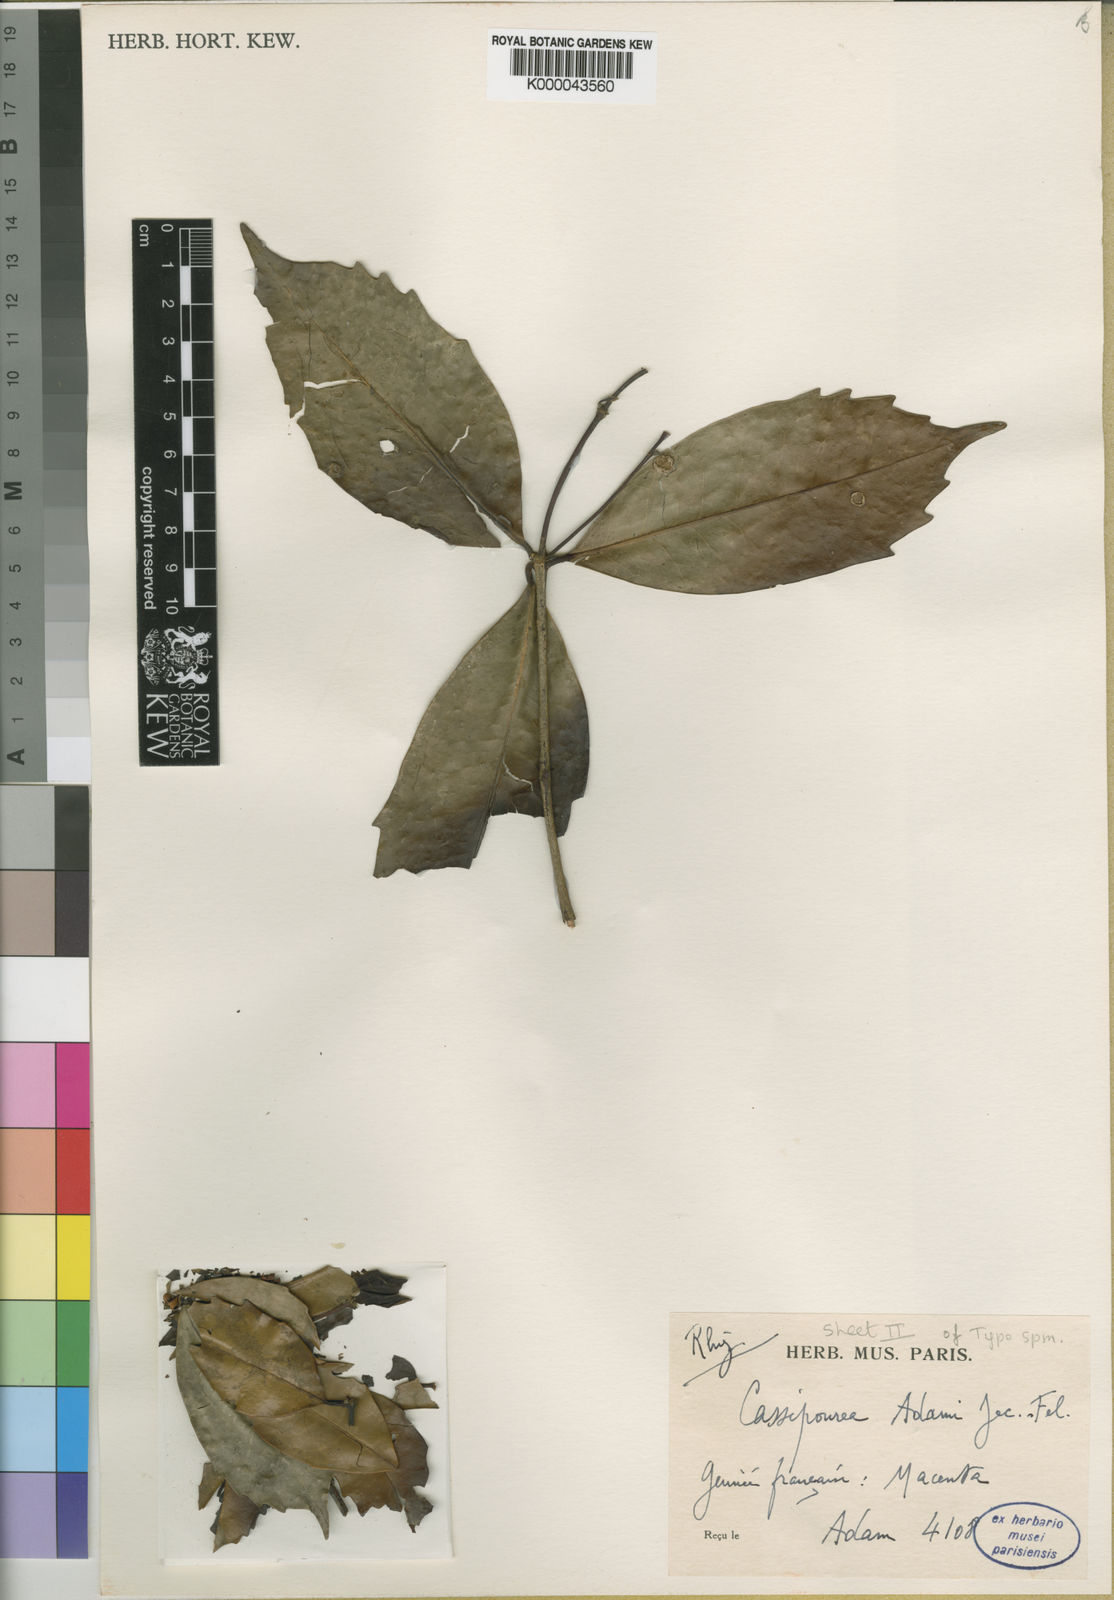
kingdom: Plantae
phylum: Tracheophyta
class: Magnoliopsida
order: Malpighiales
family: Rhizophoraceae
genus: Cassipourea
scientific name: Cassipourea
